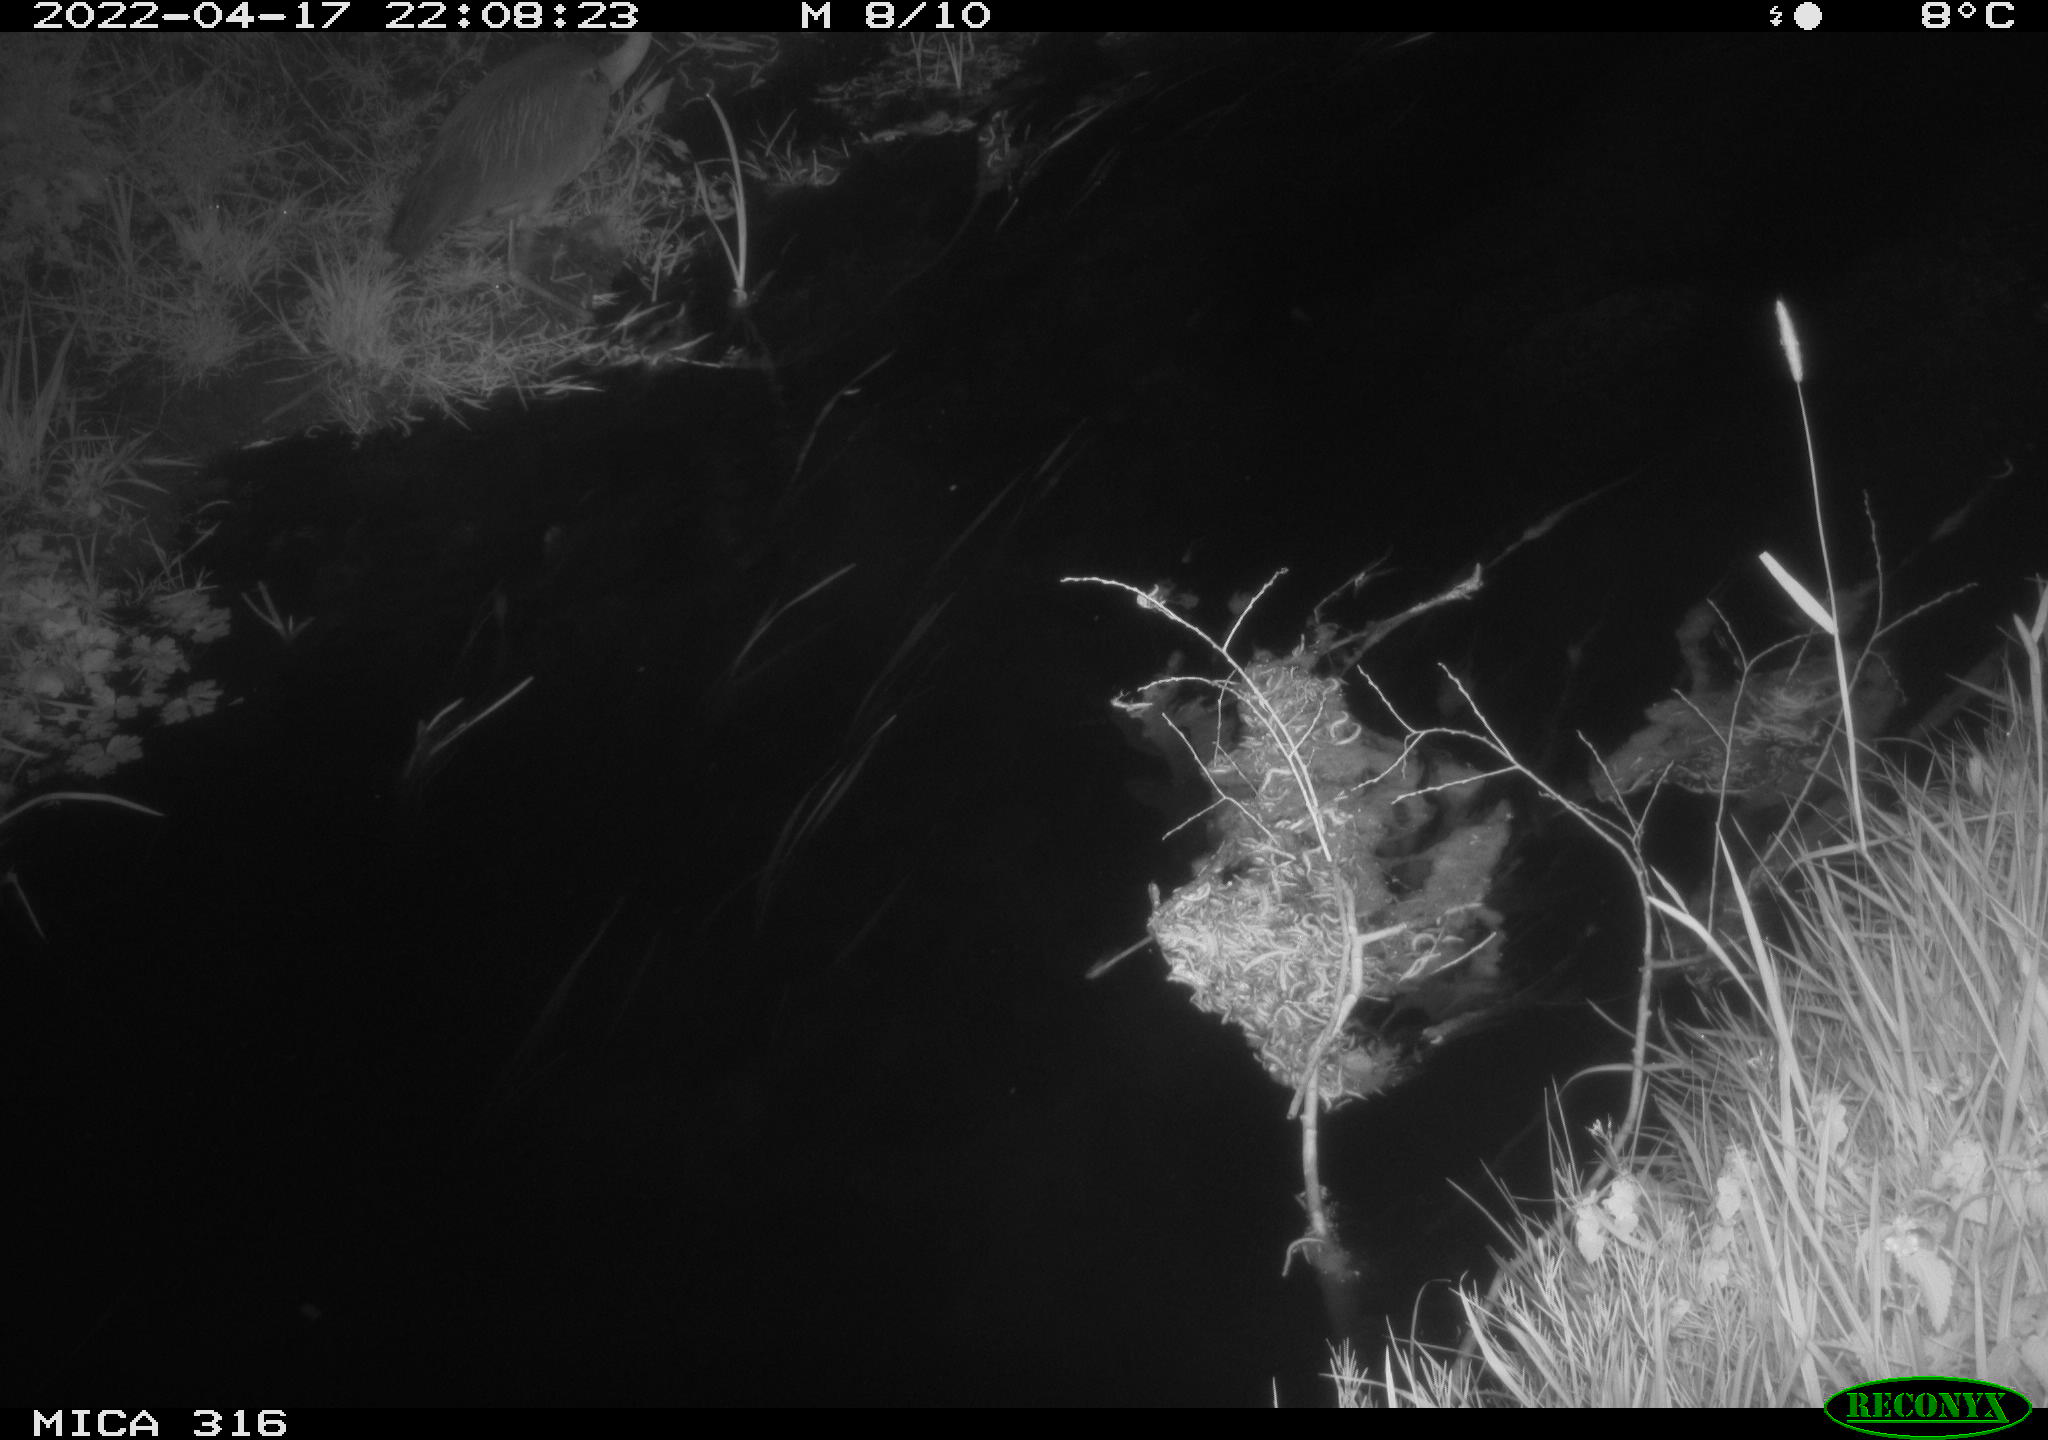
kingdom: Animalia
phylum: Chordata
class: Aves
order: Pelecaniformes
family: Ardeidae
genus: Ardea
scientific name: Ardea cinerea
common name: Grey heron
